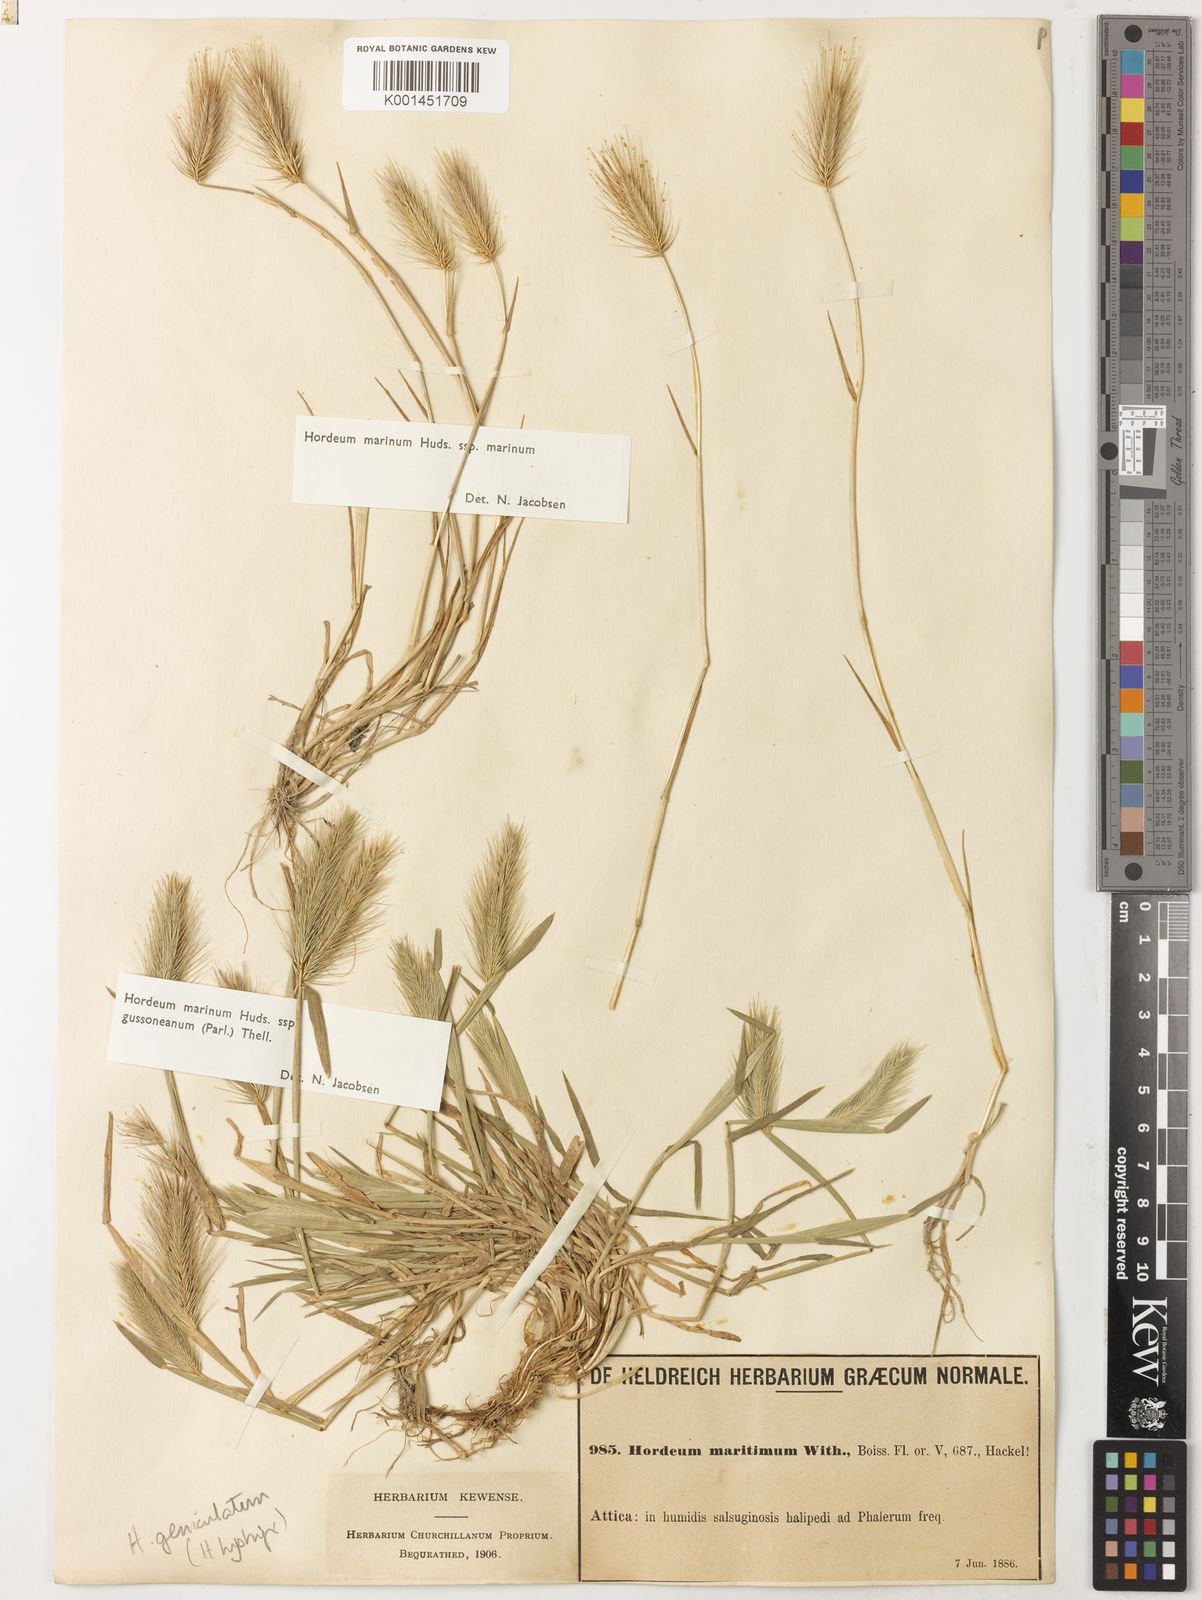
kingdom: Plantae
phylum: Tracheophyta
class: Liliopsida
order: Poales
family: Poaceae
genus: Hordeum
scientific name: Hordeum marinum
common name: Sea barley
